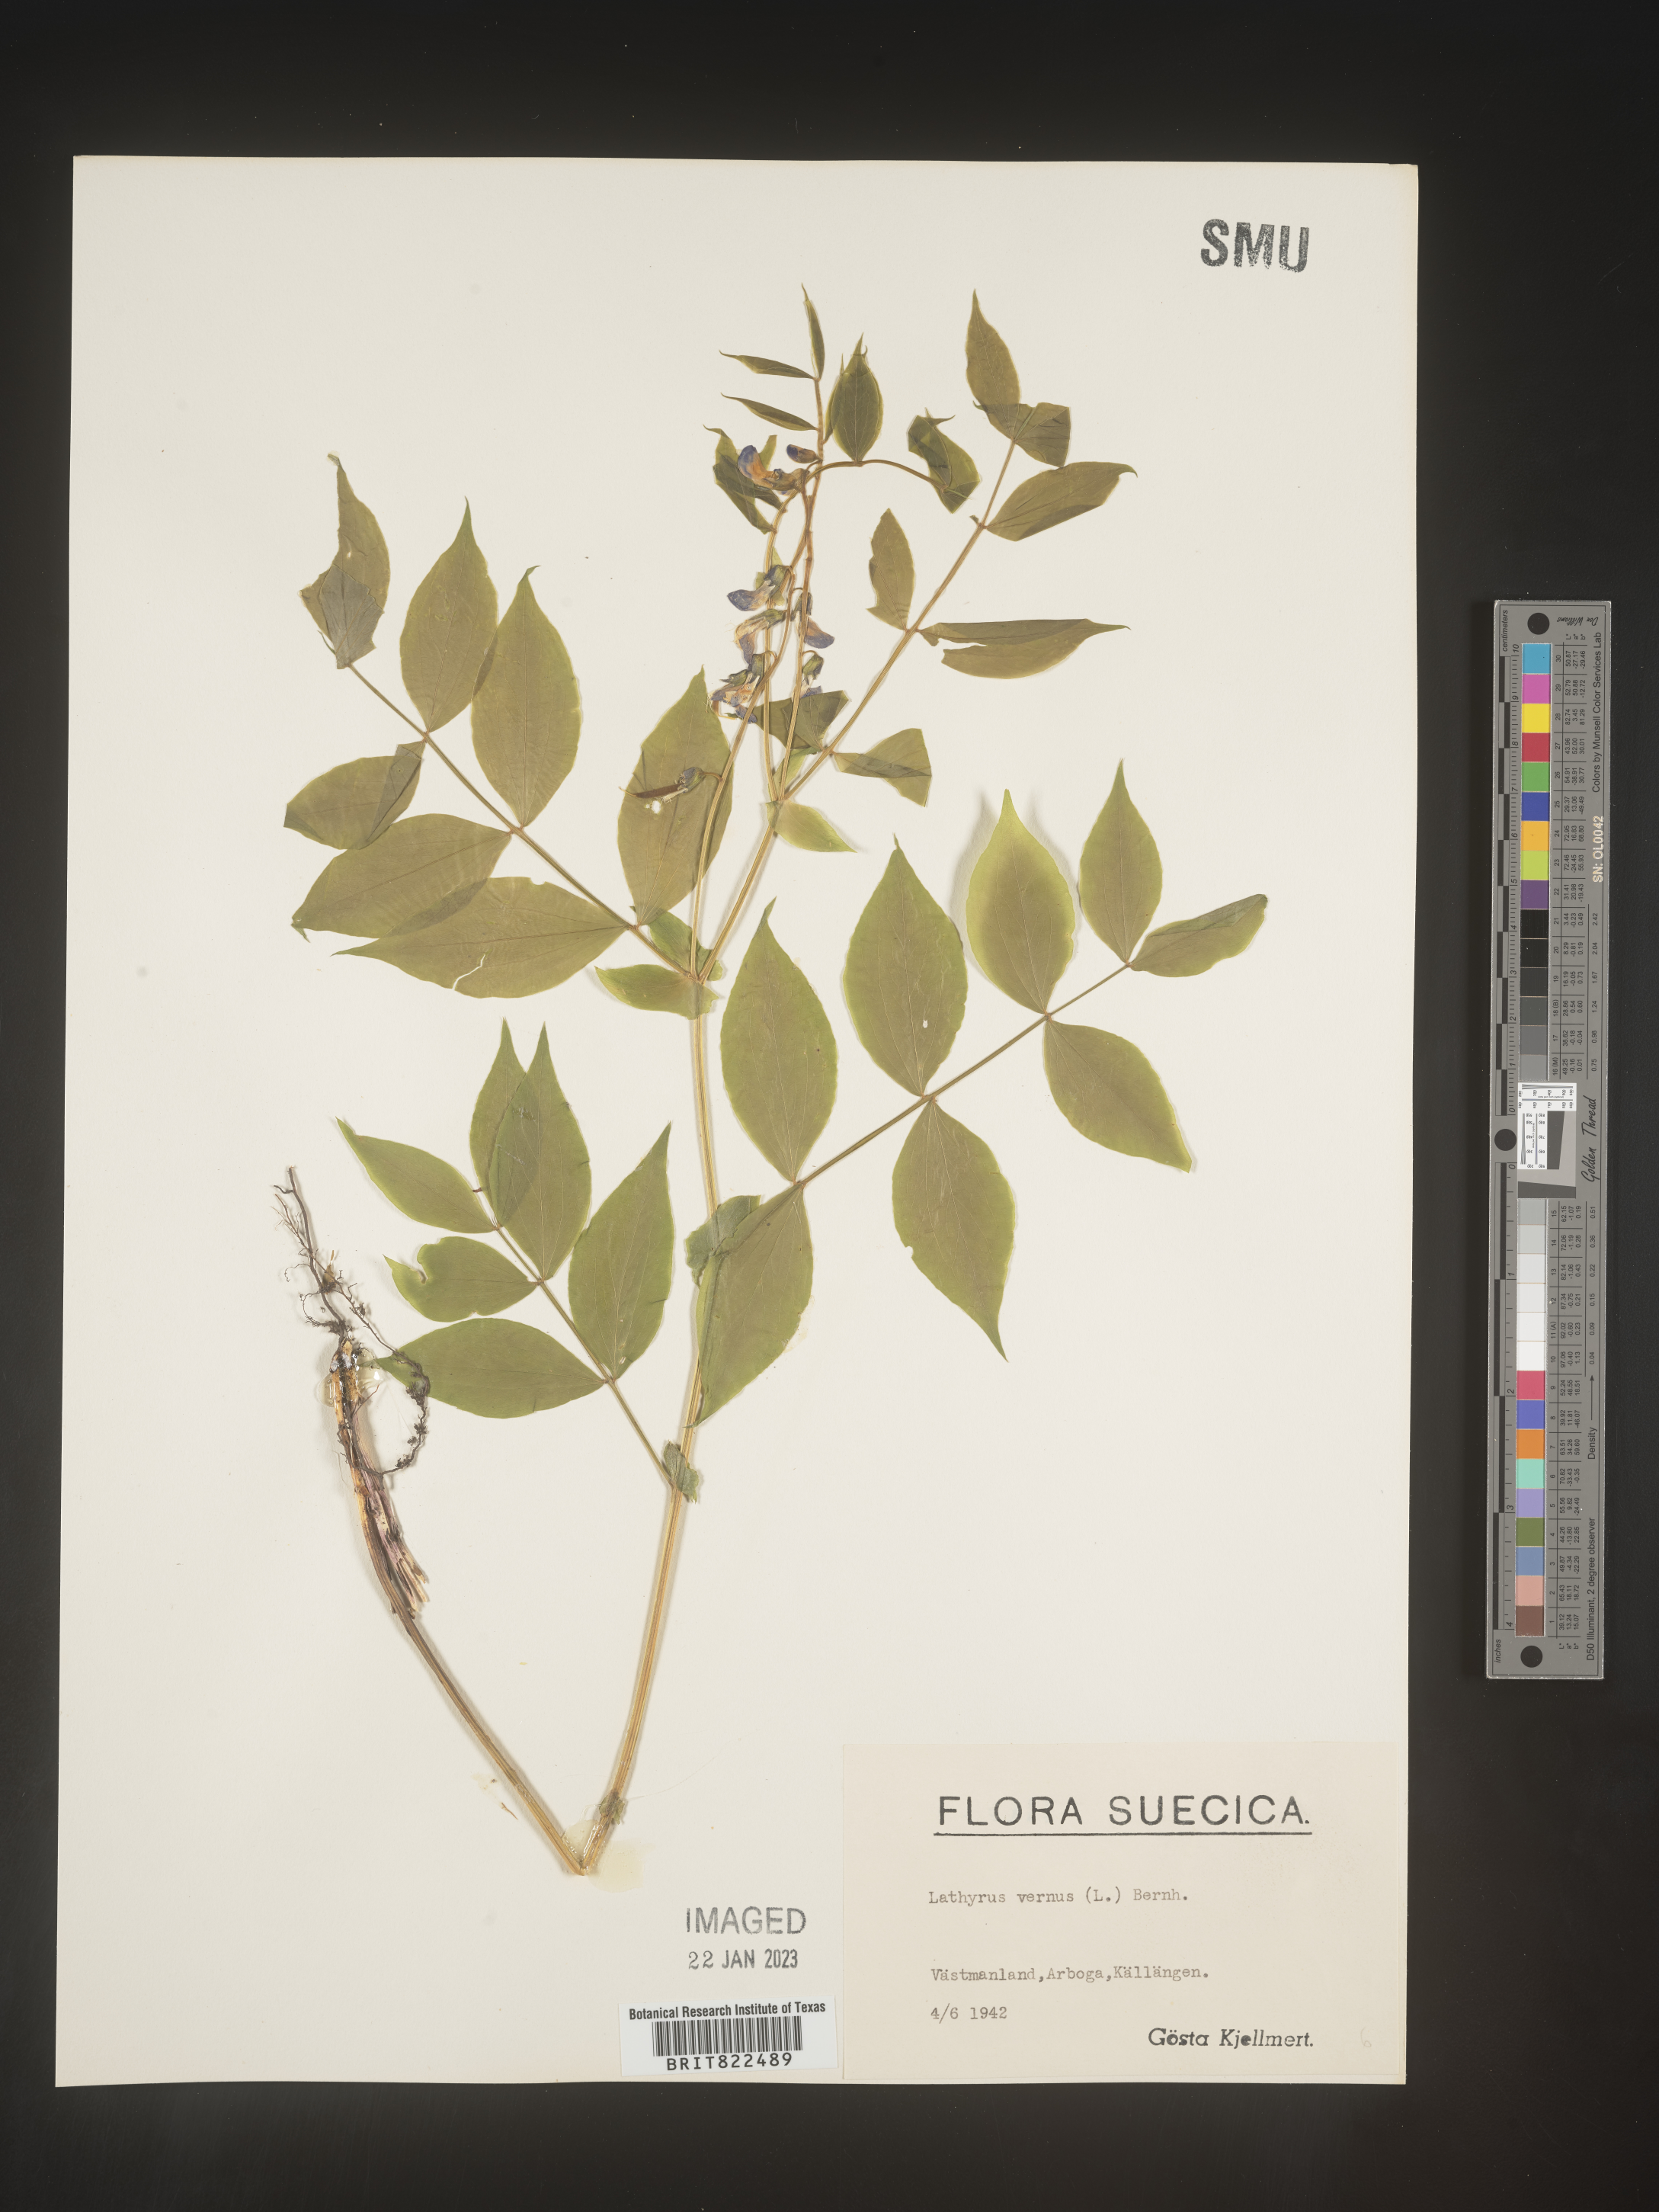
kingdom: Plantae
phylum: Tracheophyta
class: Magnoliopsida
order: Fabales
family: Fabaceae
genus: Lathyrus
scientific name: Lathyrus
